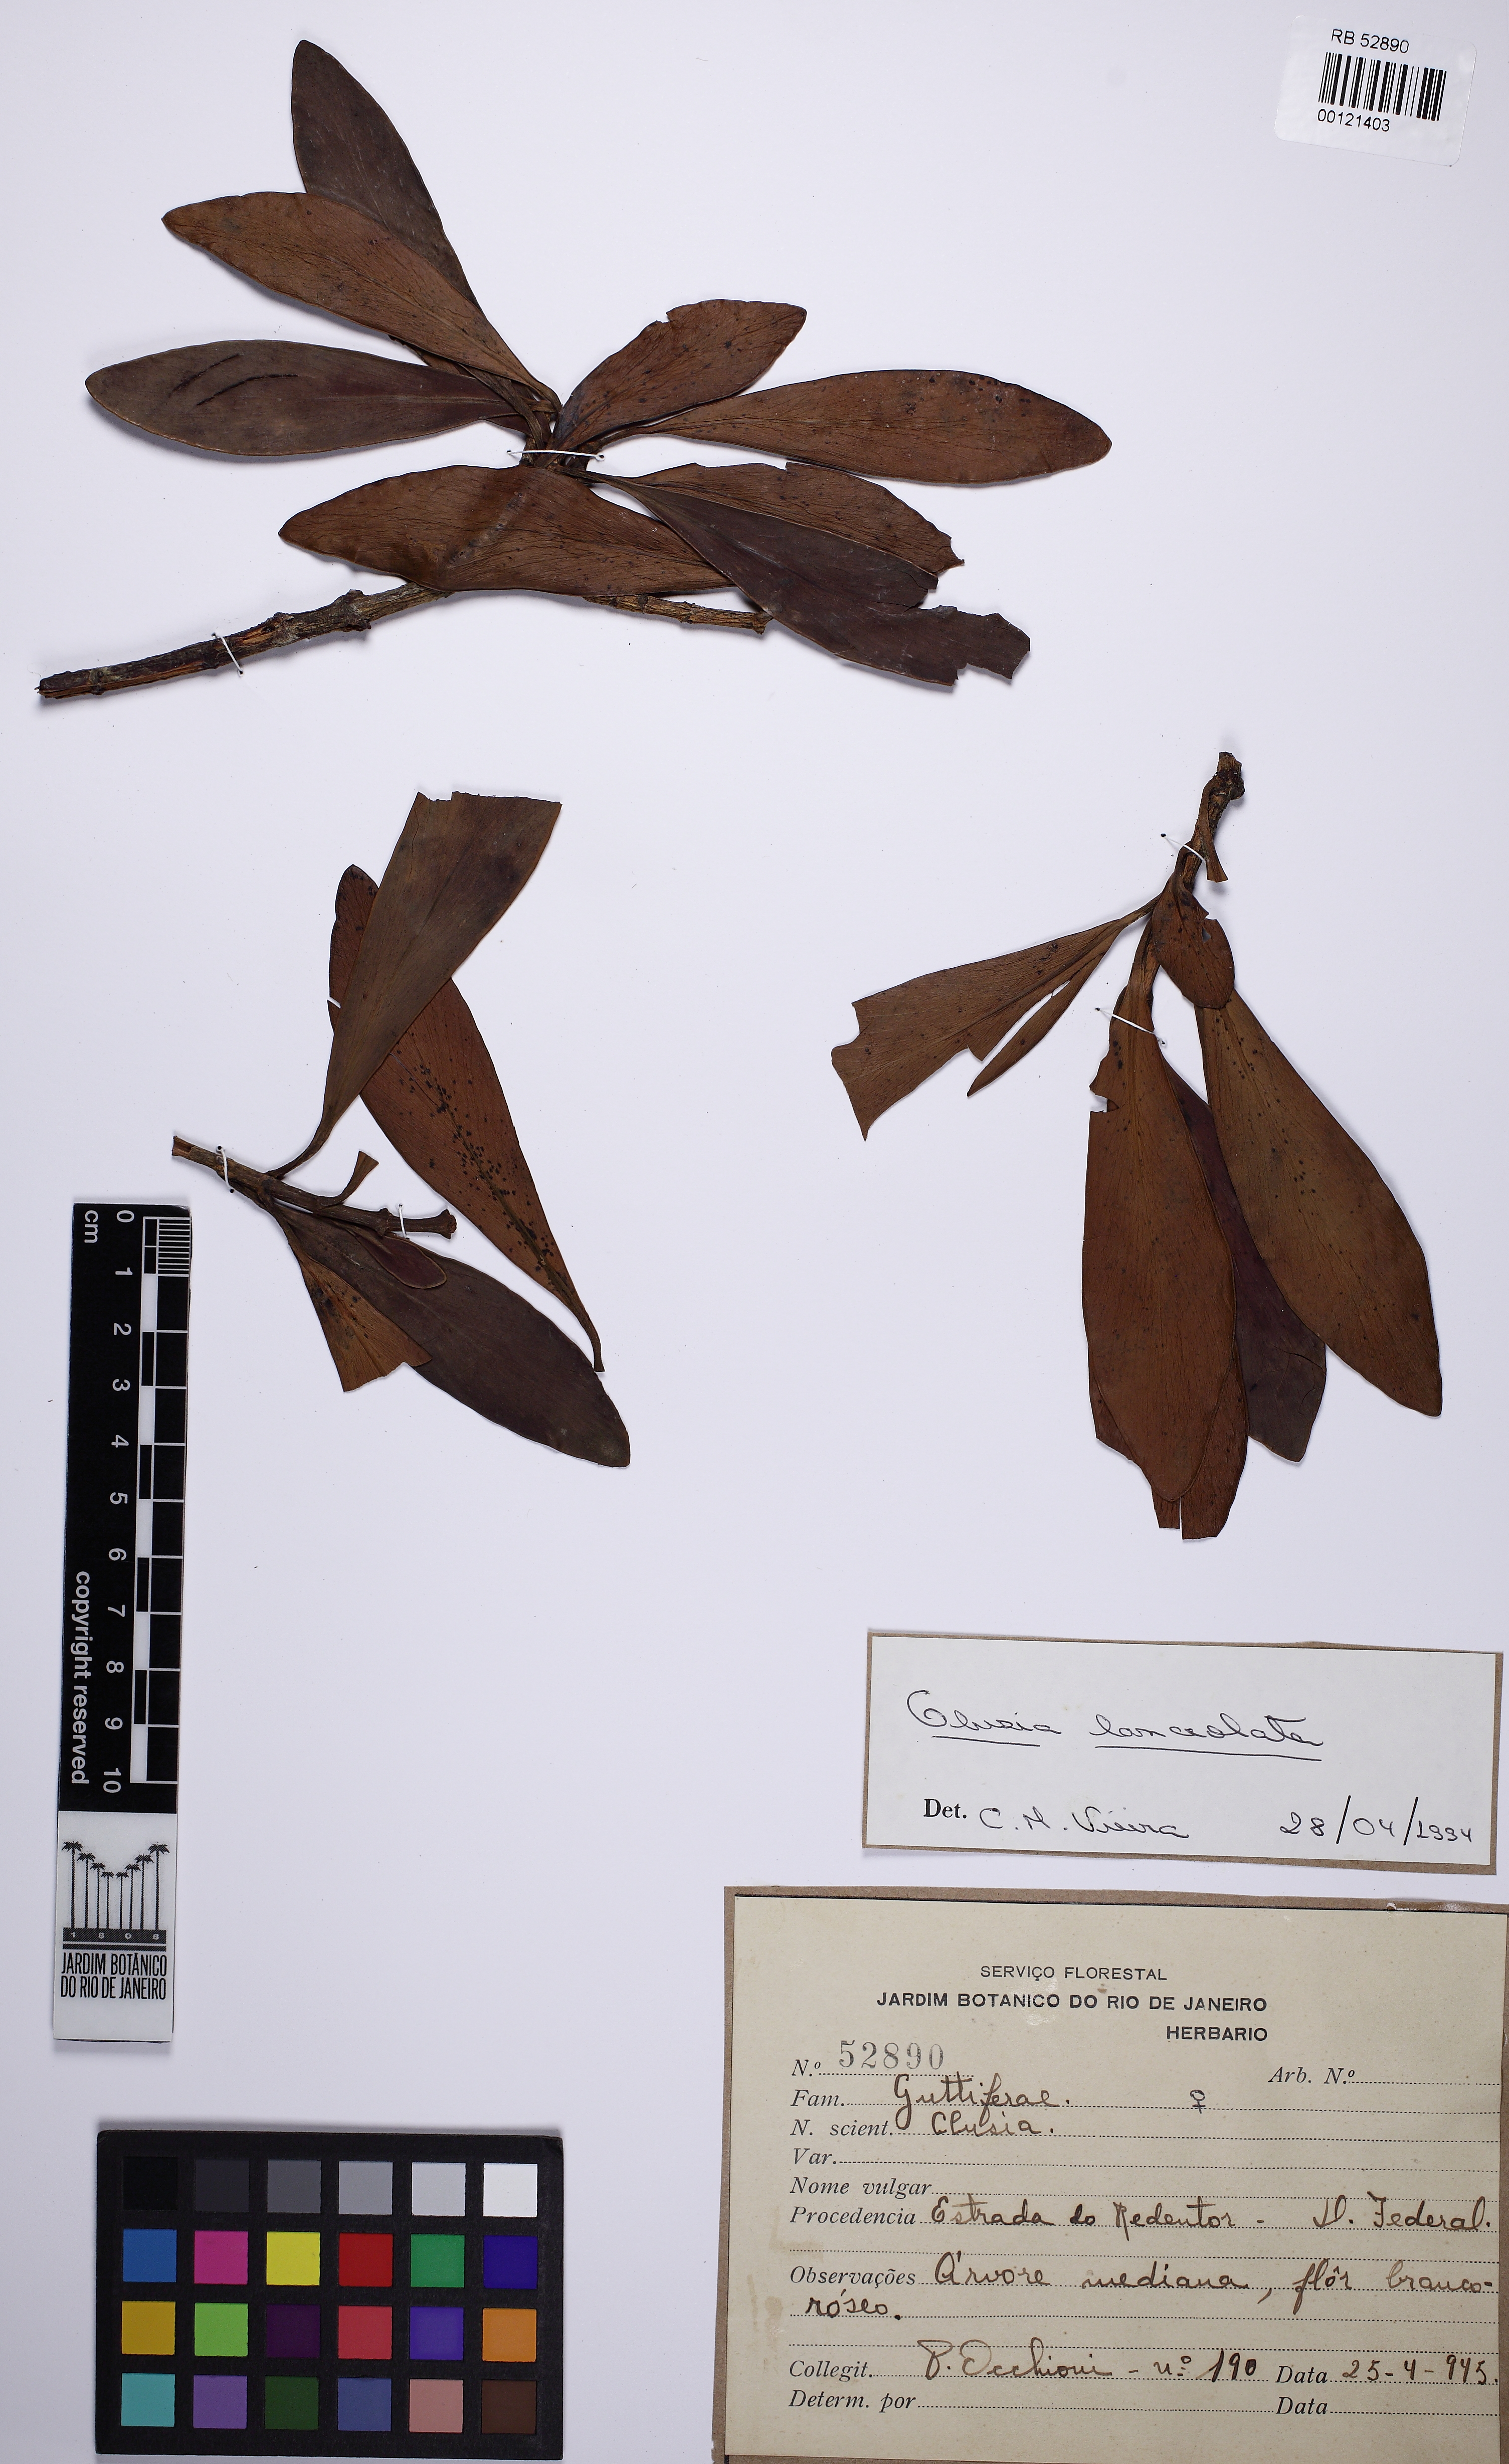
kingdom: Plantae
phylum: Tracheophyta
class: Magnoliopsida
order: Malpighiales
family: Clusiaceae
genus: Clusia
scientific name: Clusia lanceolata
